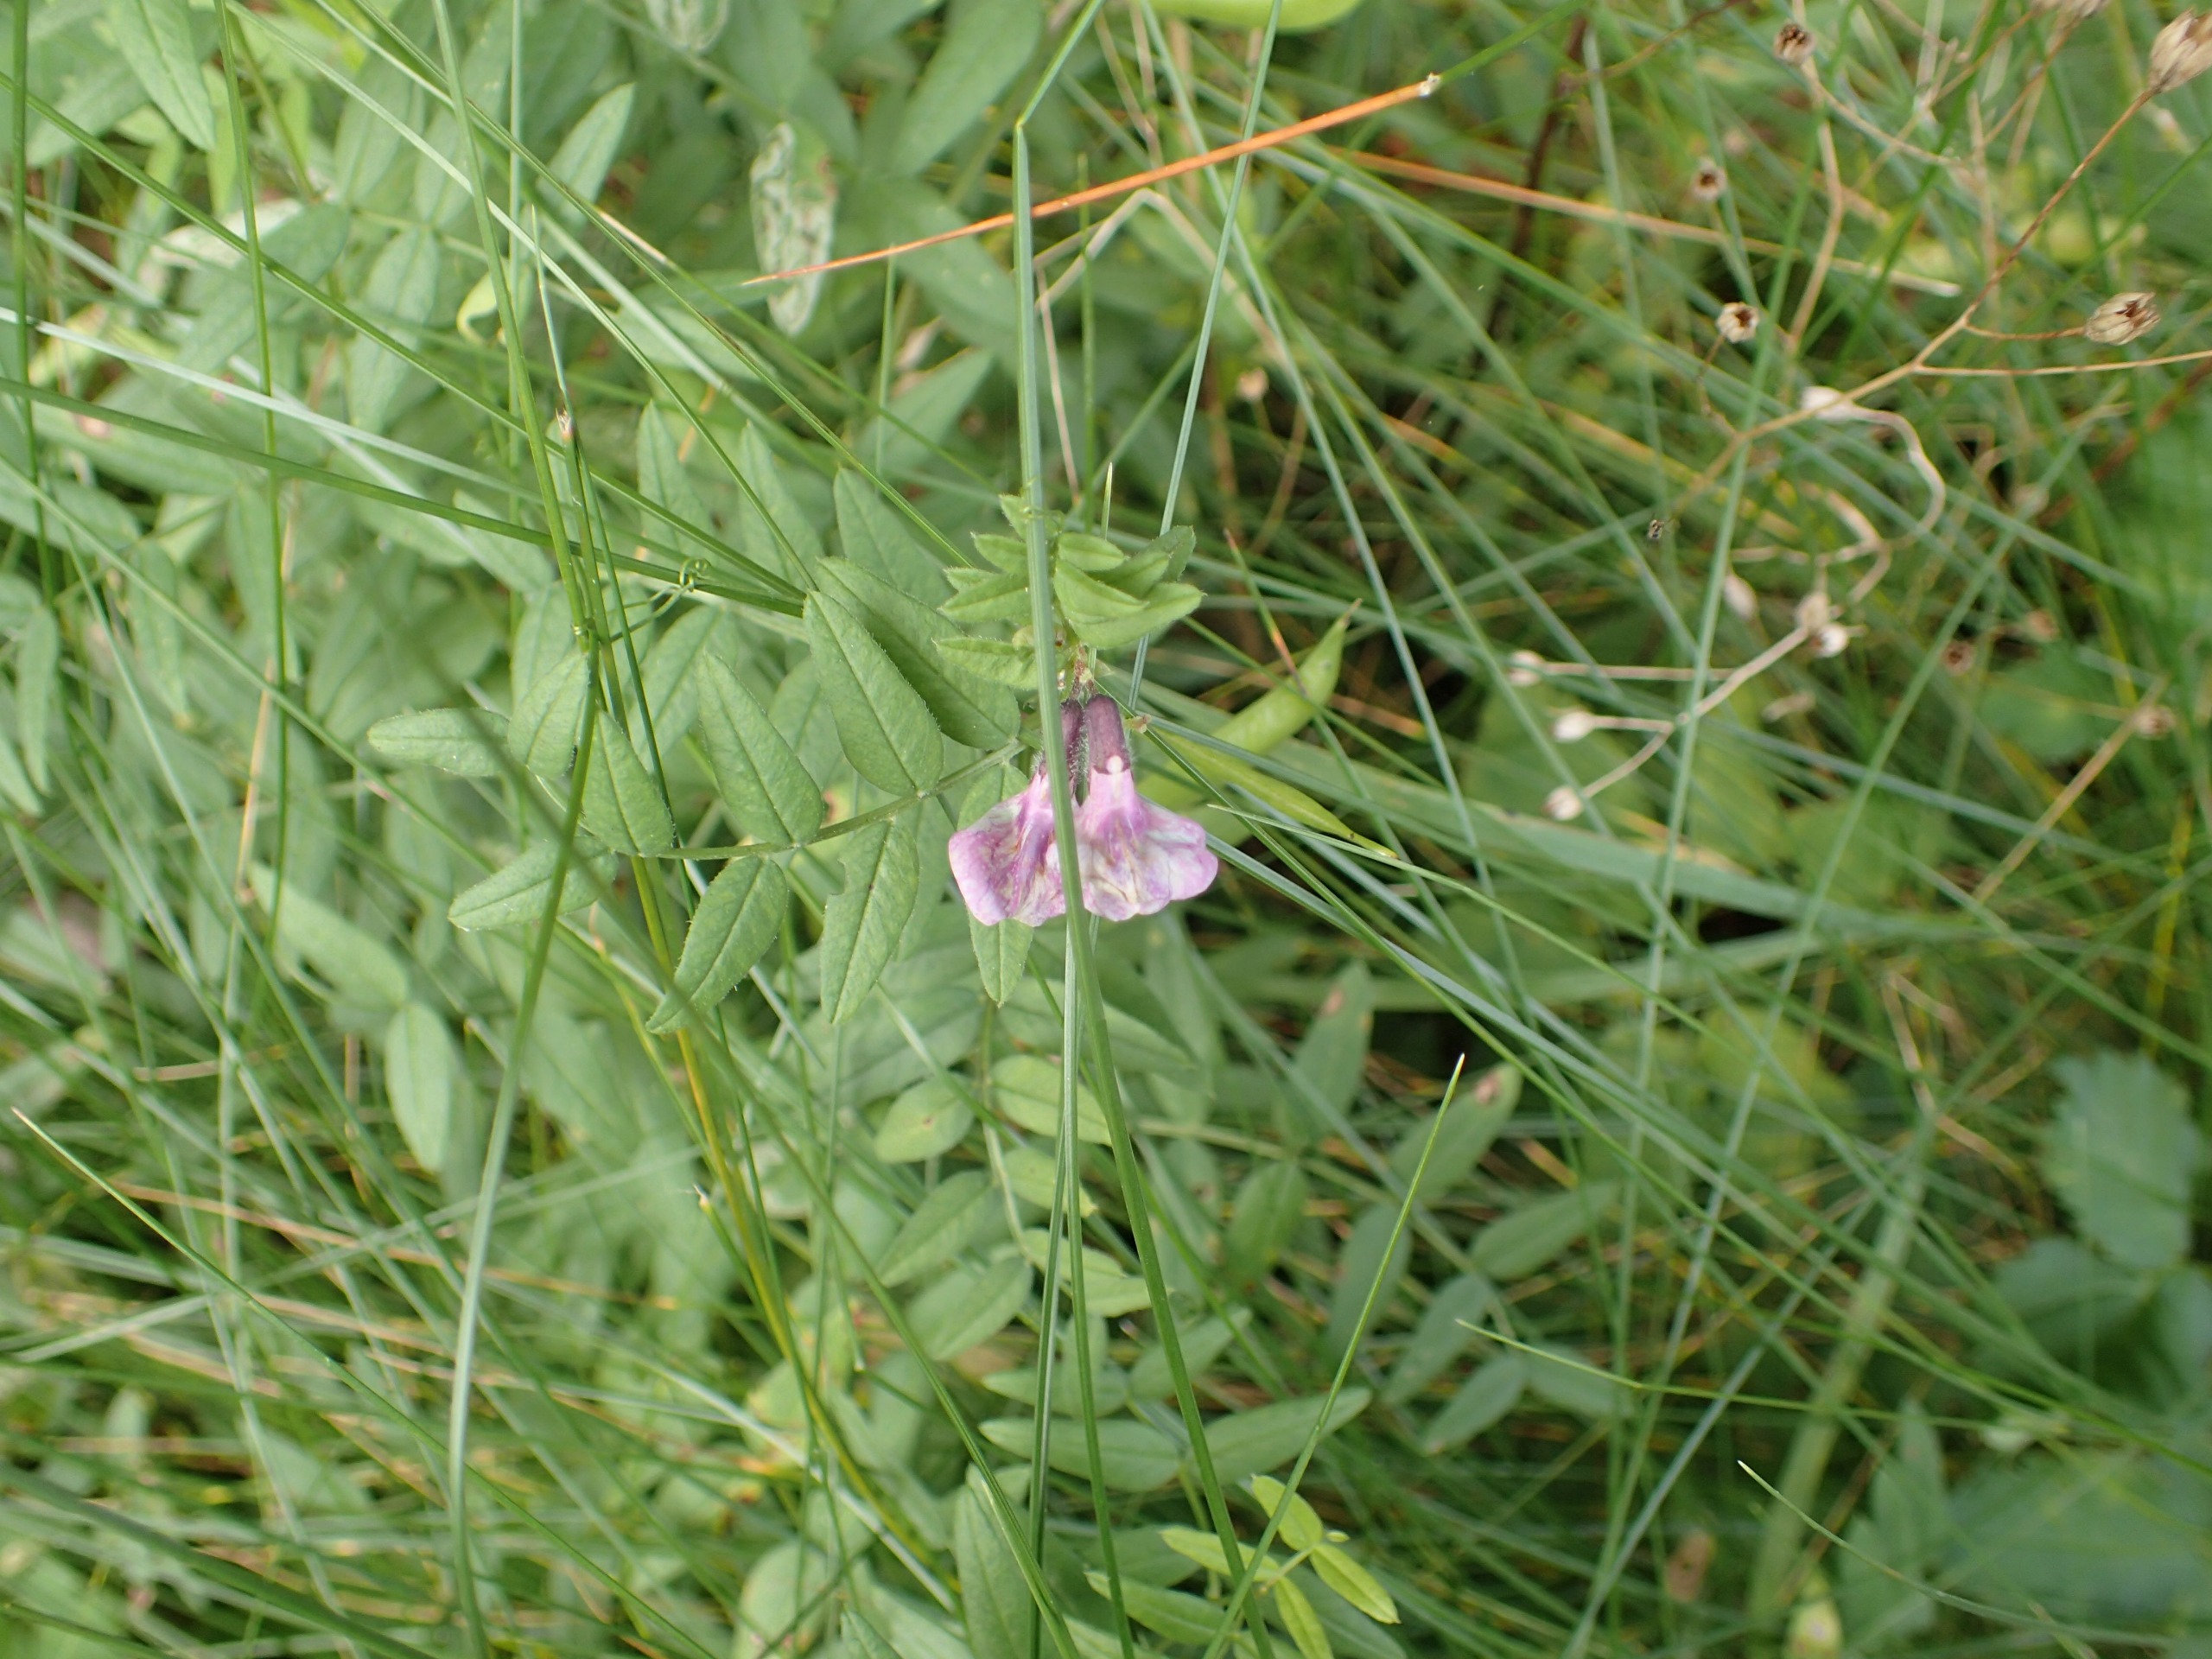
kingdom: Plantae
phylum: Tracheophyta
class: Magnoliopsida
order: Fabales
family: Fabaceae
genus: Vicia
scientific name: Vicia sepium
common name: Gærde-vikke
